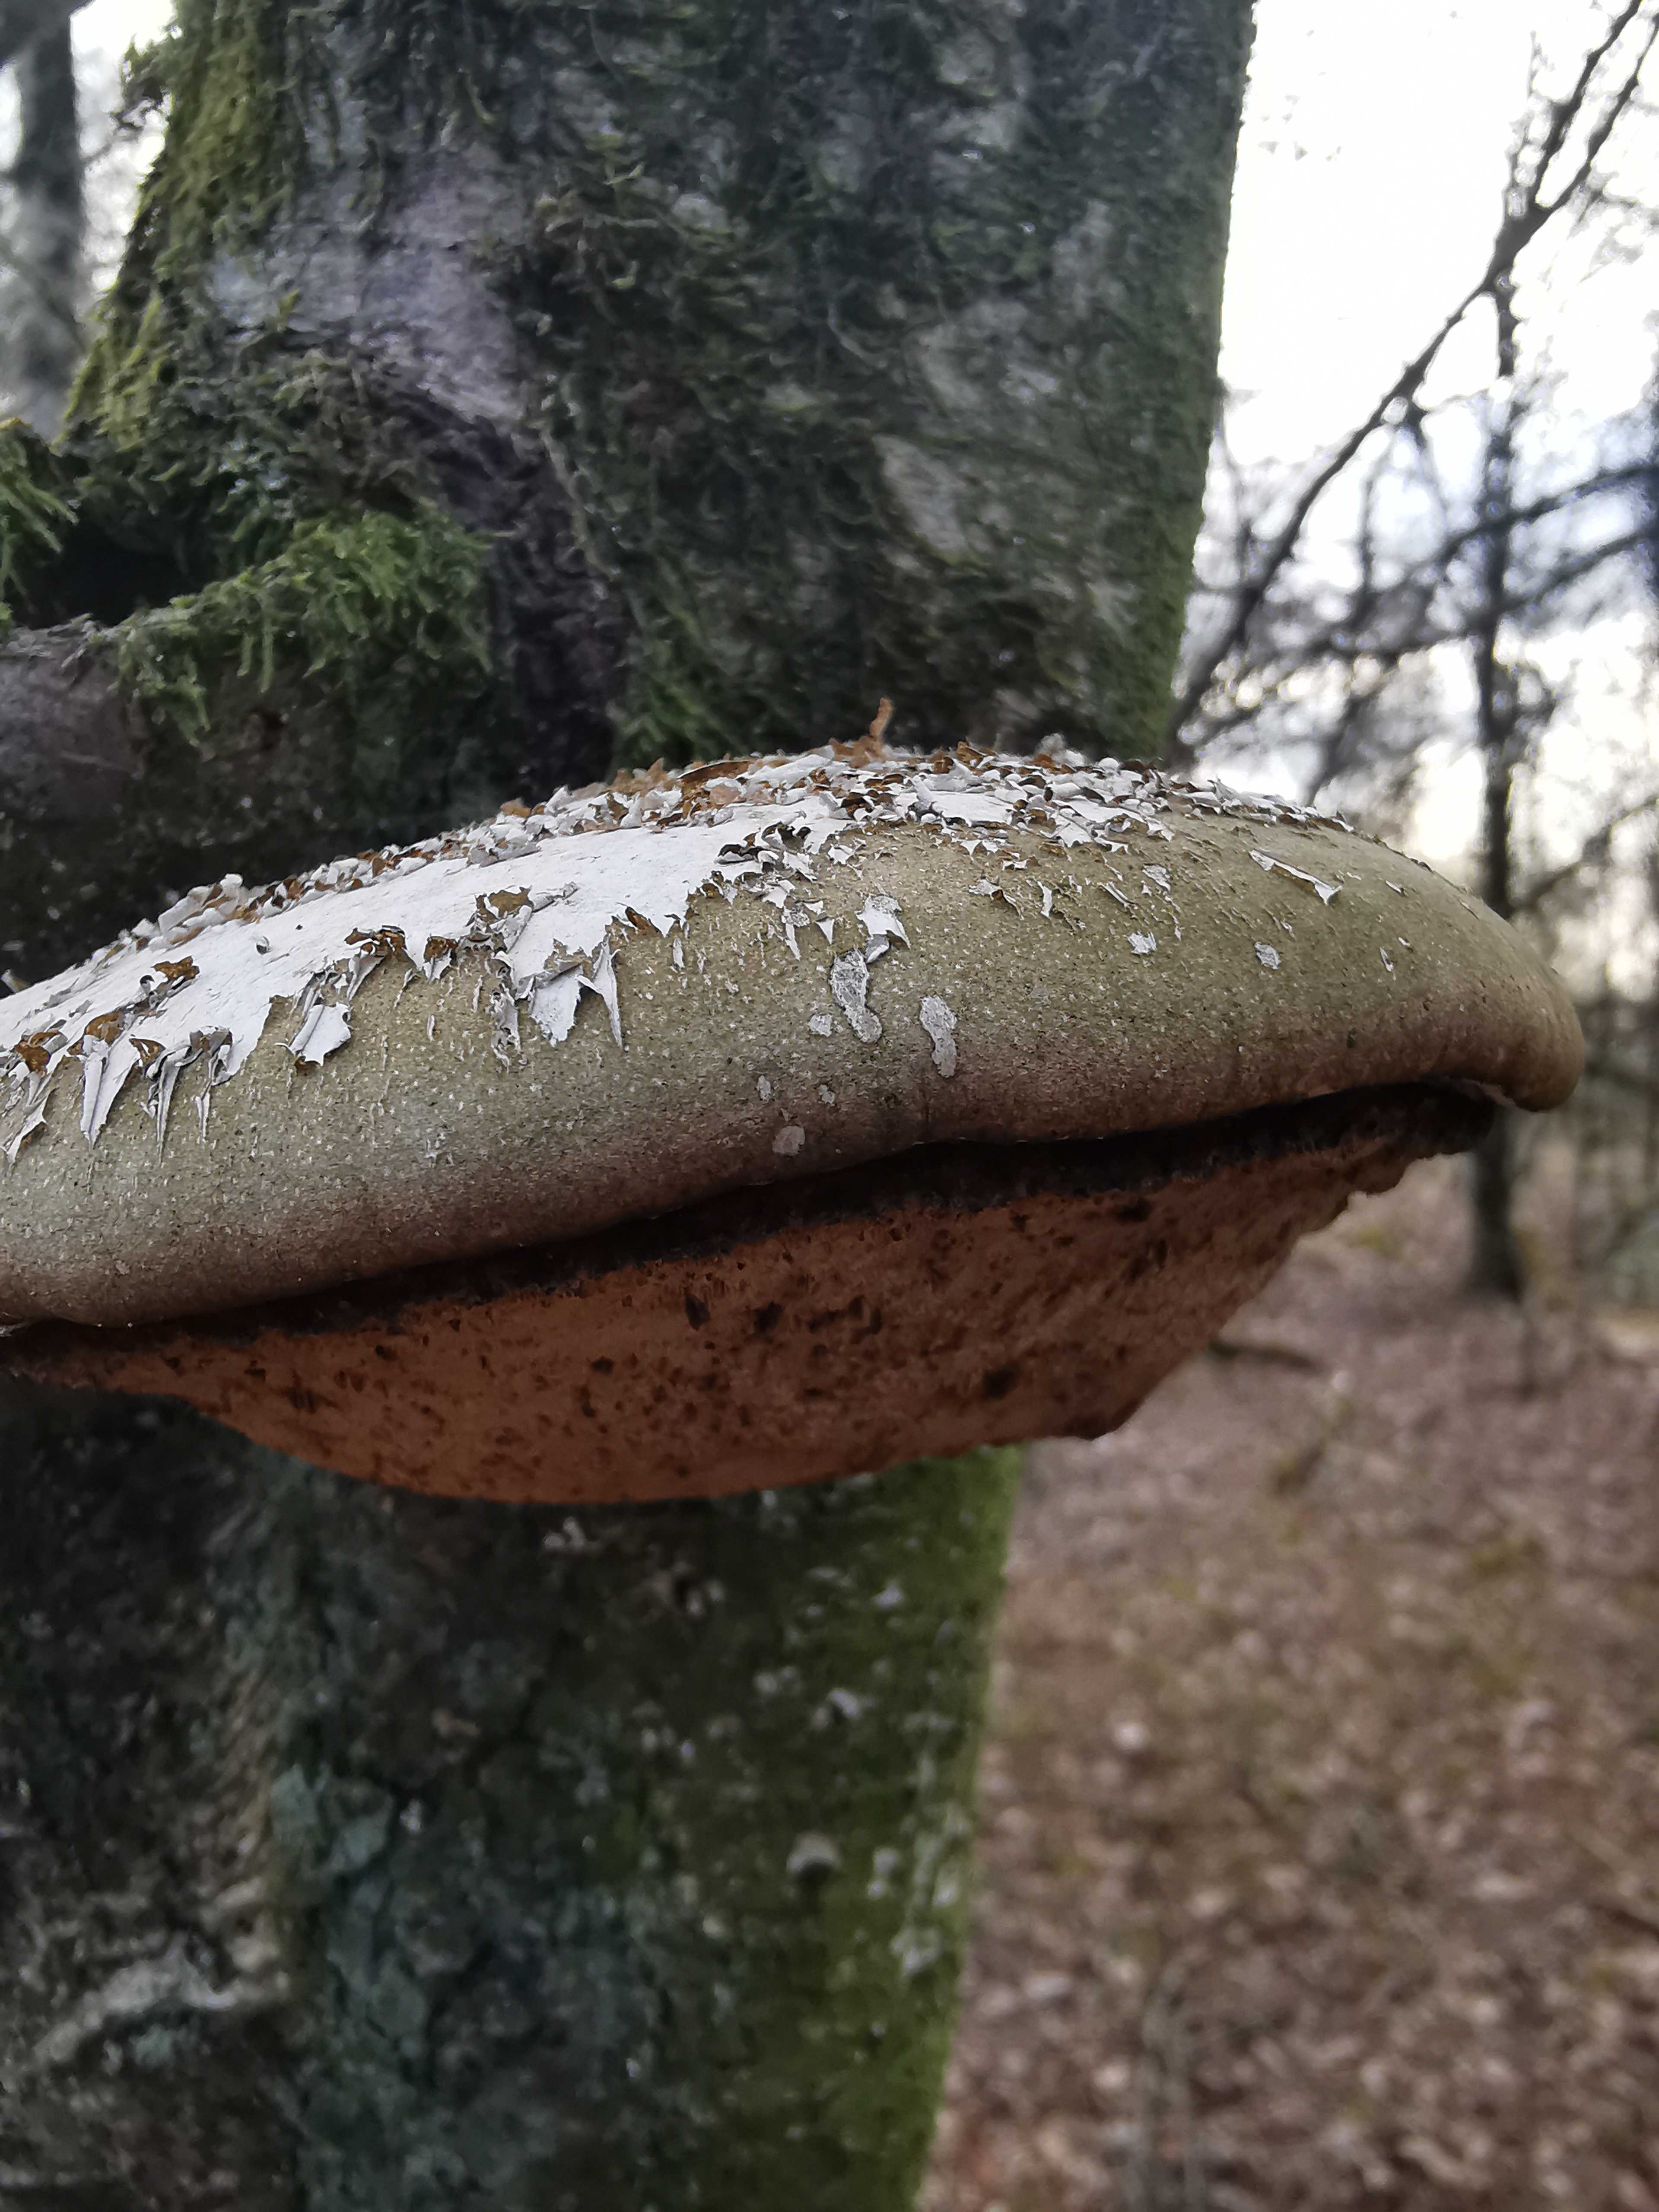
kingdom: Fungi
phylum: Basidiomycota
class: Agaricomycetes
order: Polyporales
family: Fomitopsidaceae
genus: Fomitopsis
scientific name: Fomitopsis betulina
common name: birkeporesvamp
